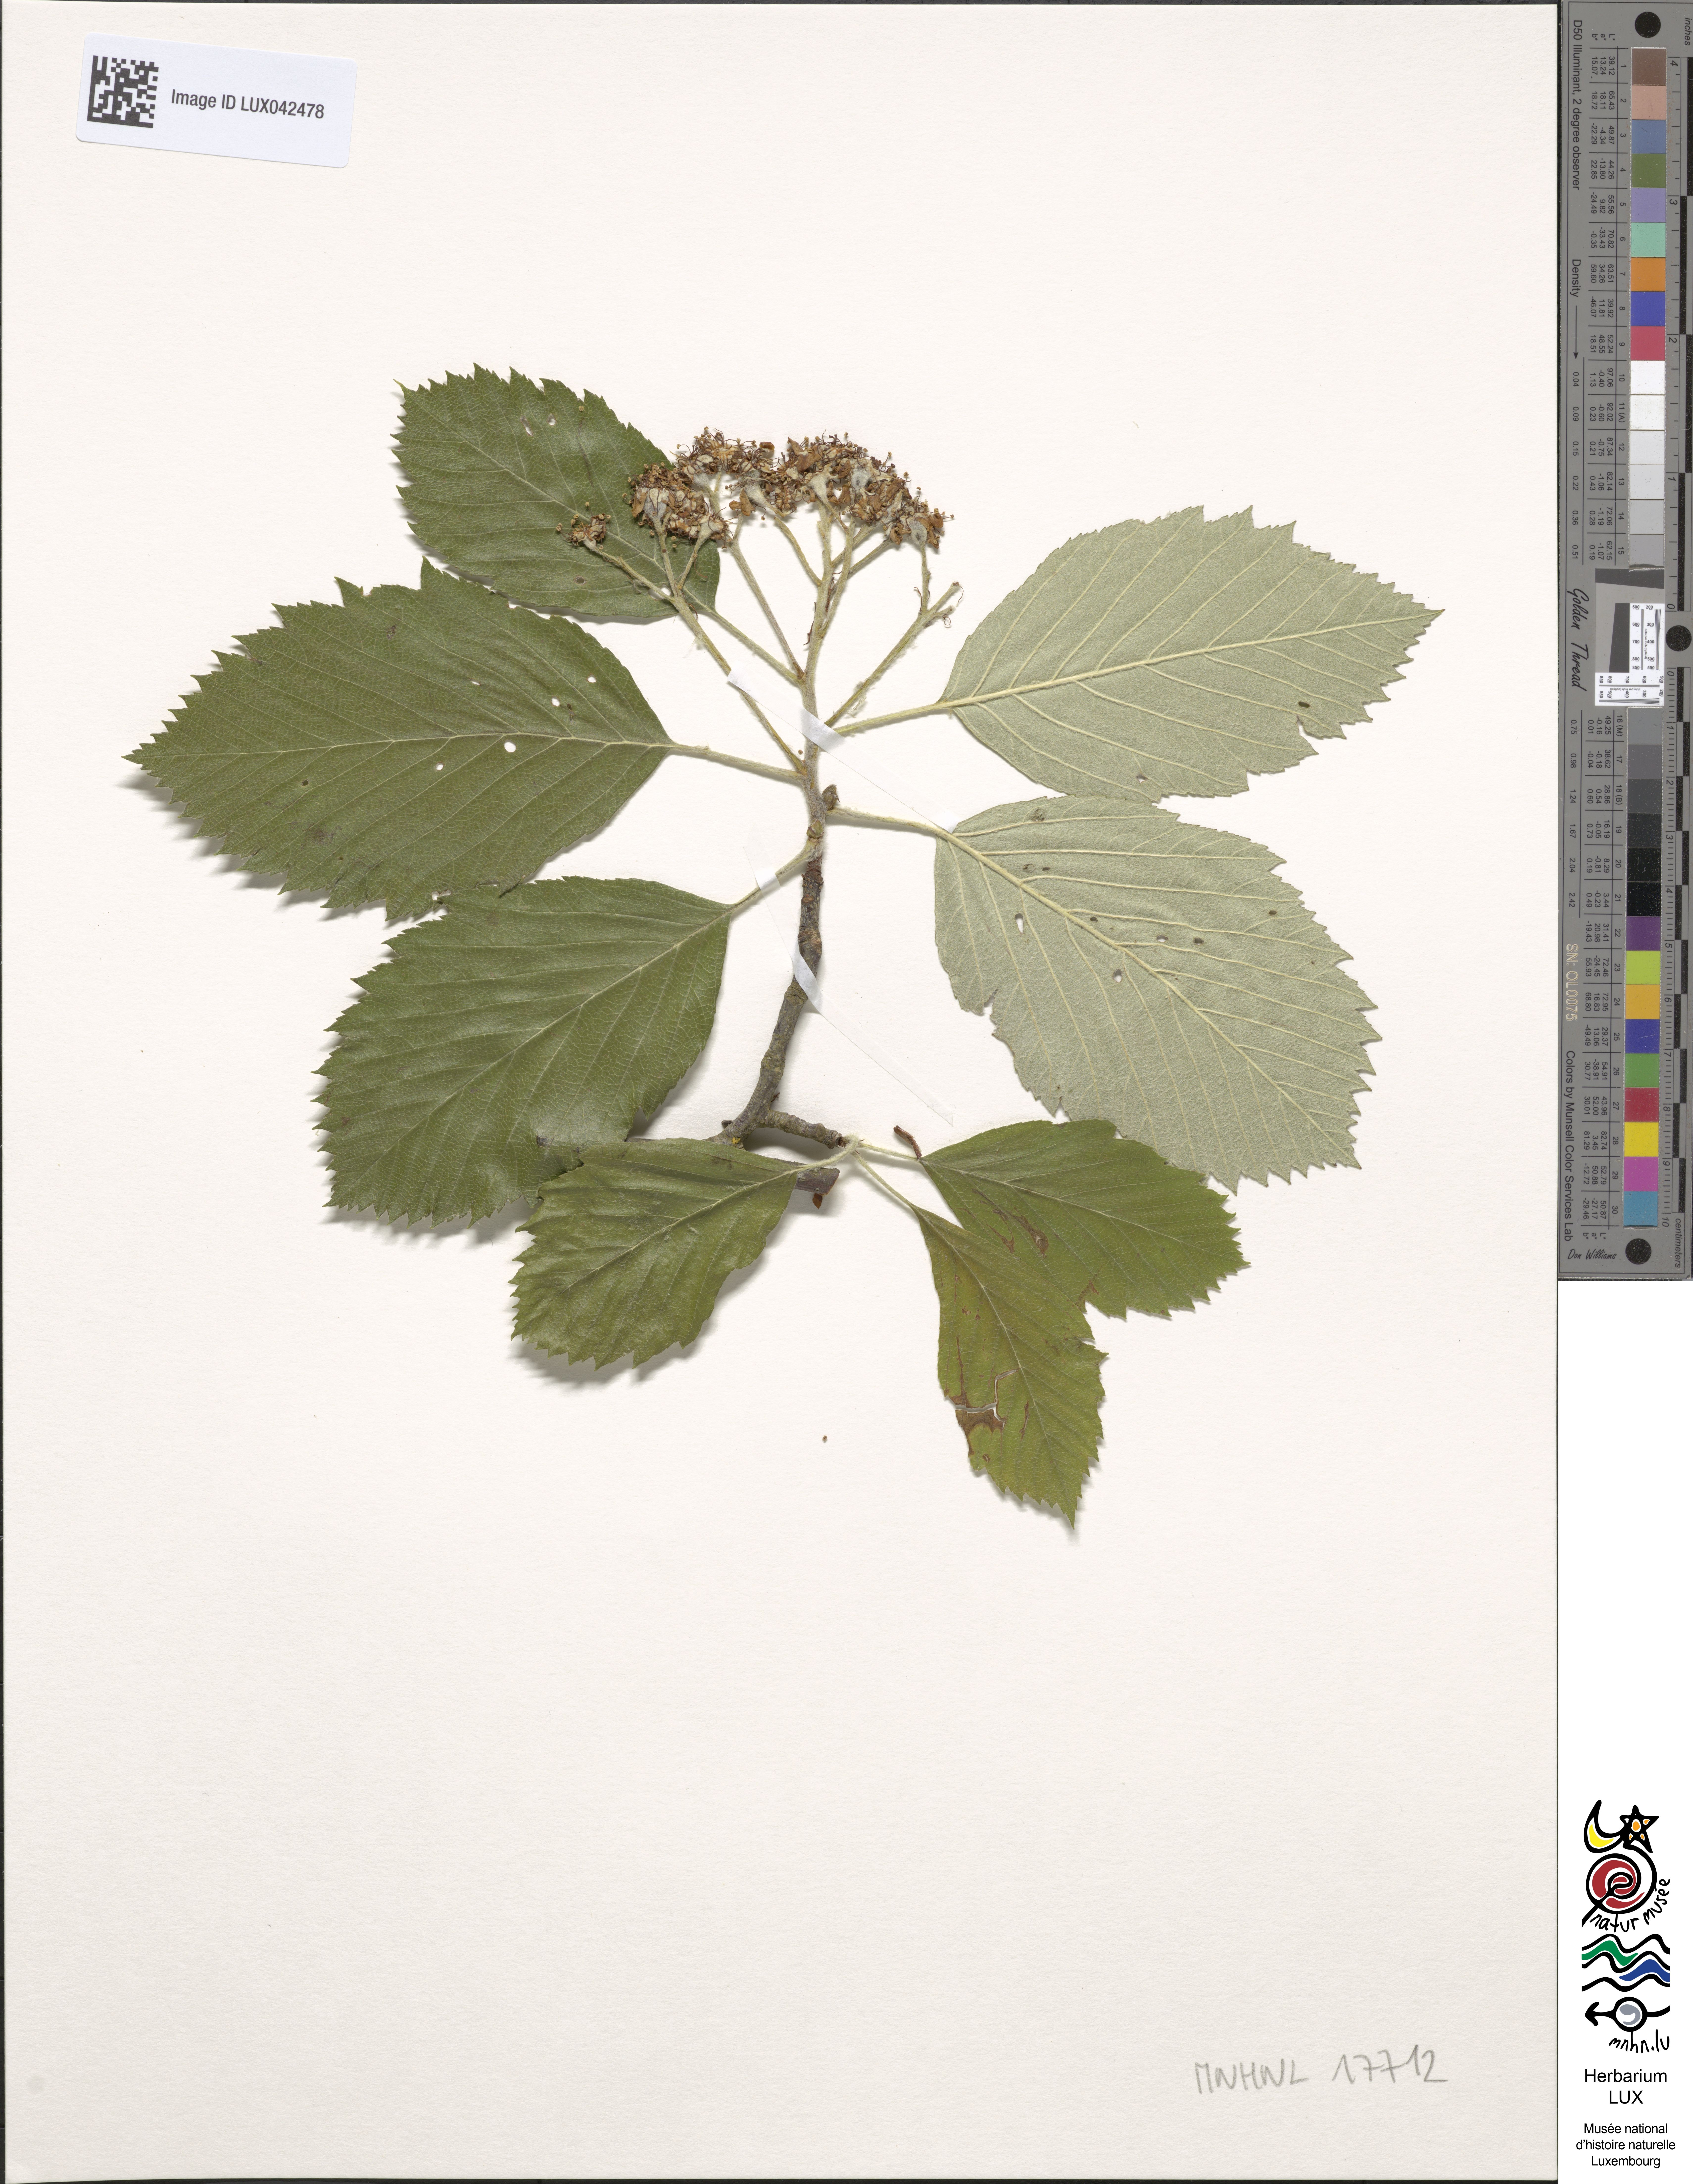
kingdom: Plantae
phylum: Tracheophyta
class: Magnoliopsida
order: Rosales
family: Rosaceae
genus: Sorbus
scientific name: Sorbus
